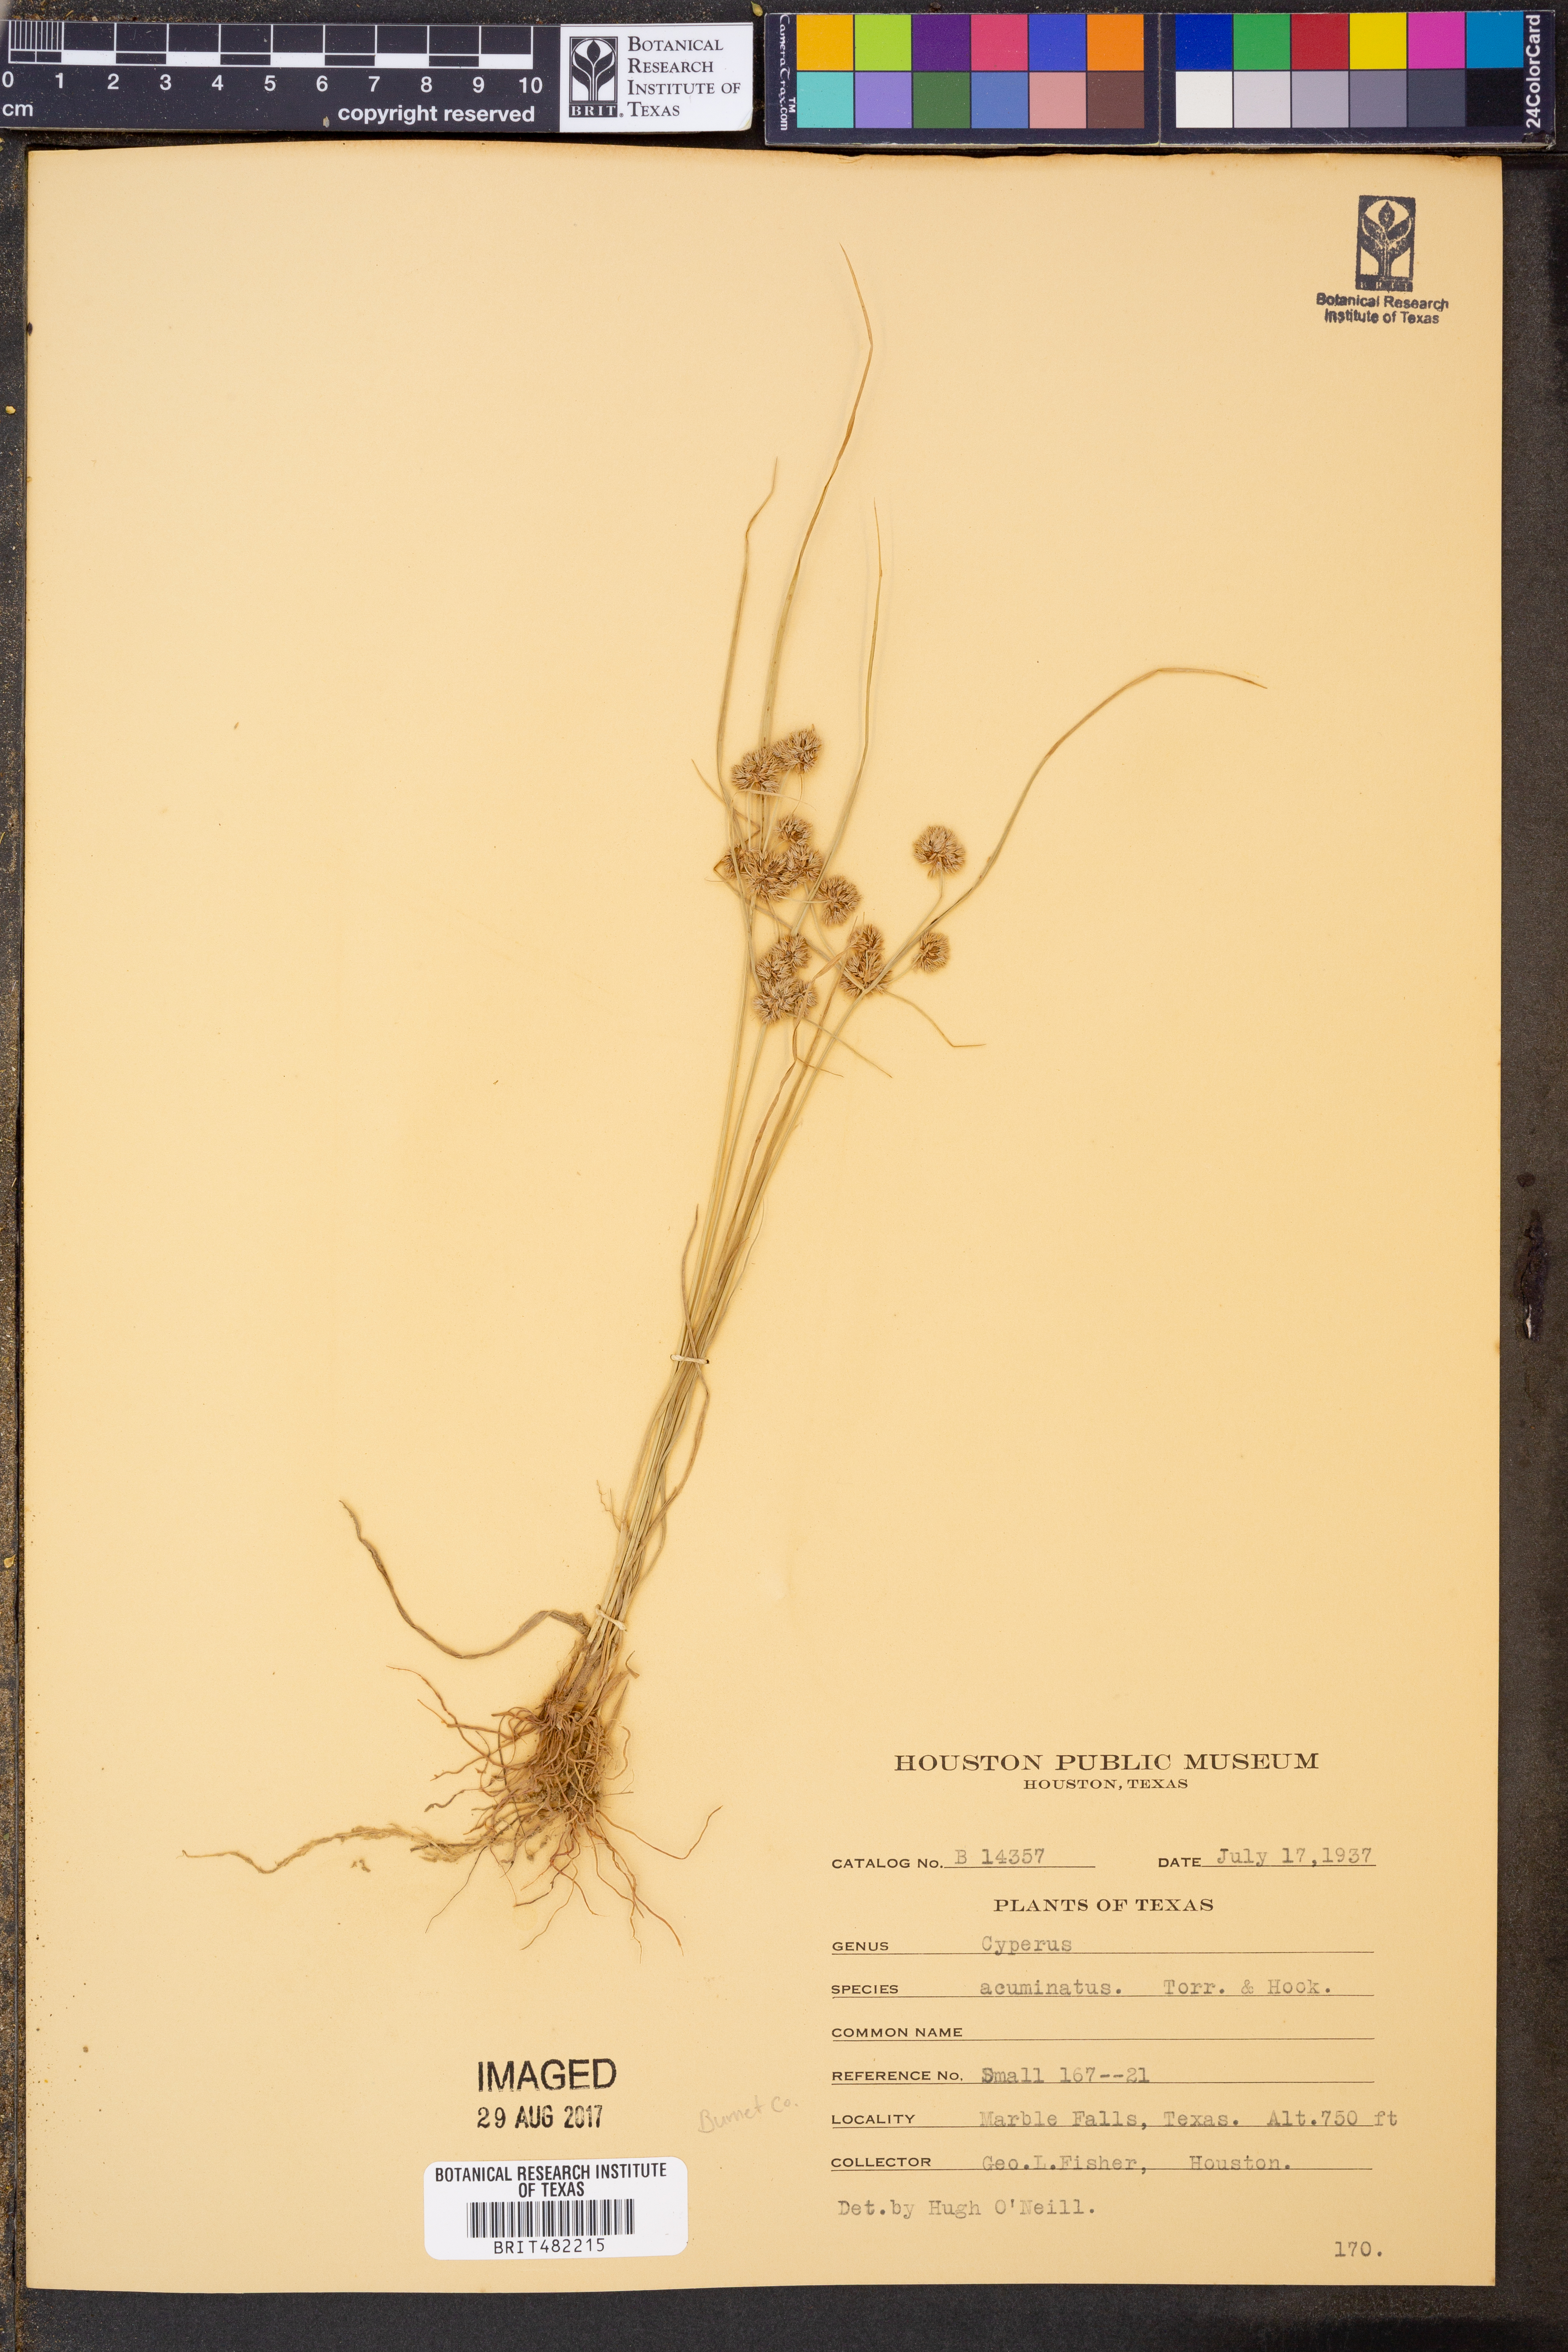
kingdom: Plantae
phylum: Tracheophyta
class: Liliopsida
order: Poales
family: Cyperaceae
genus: Cyperus
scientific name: Cyperus acuminatus
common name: Short-pointed cyperus
